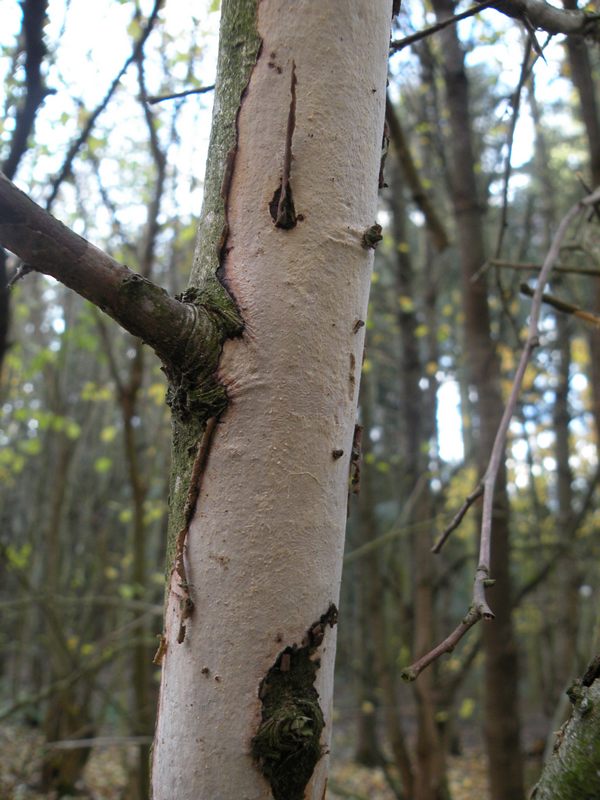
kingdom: Fungi
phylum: Basidiomycota
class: Agaricomycetes
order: Corticiales
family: Vuilleminiaceae
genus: Vuilleminia
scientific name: Vuilleminia cystidiata
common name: tjørne-barksprænger
